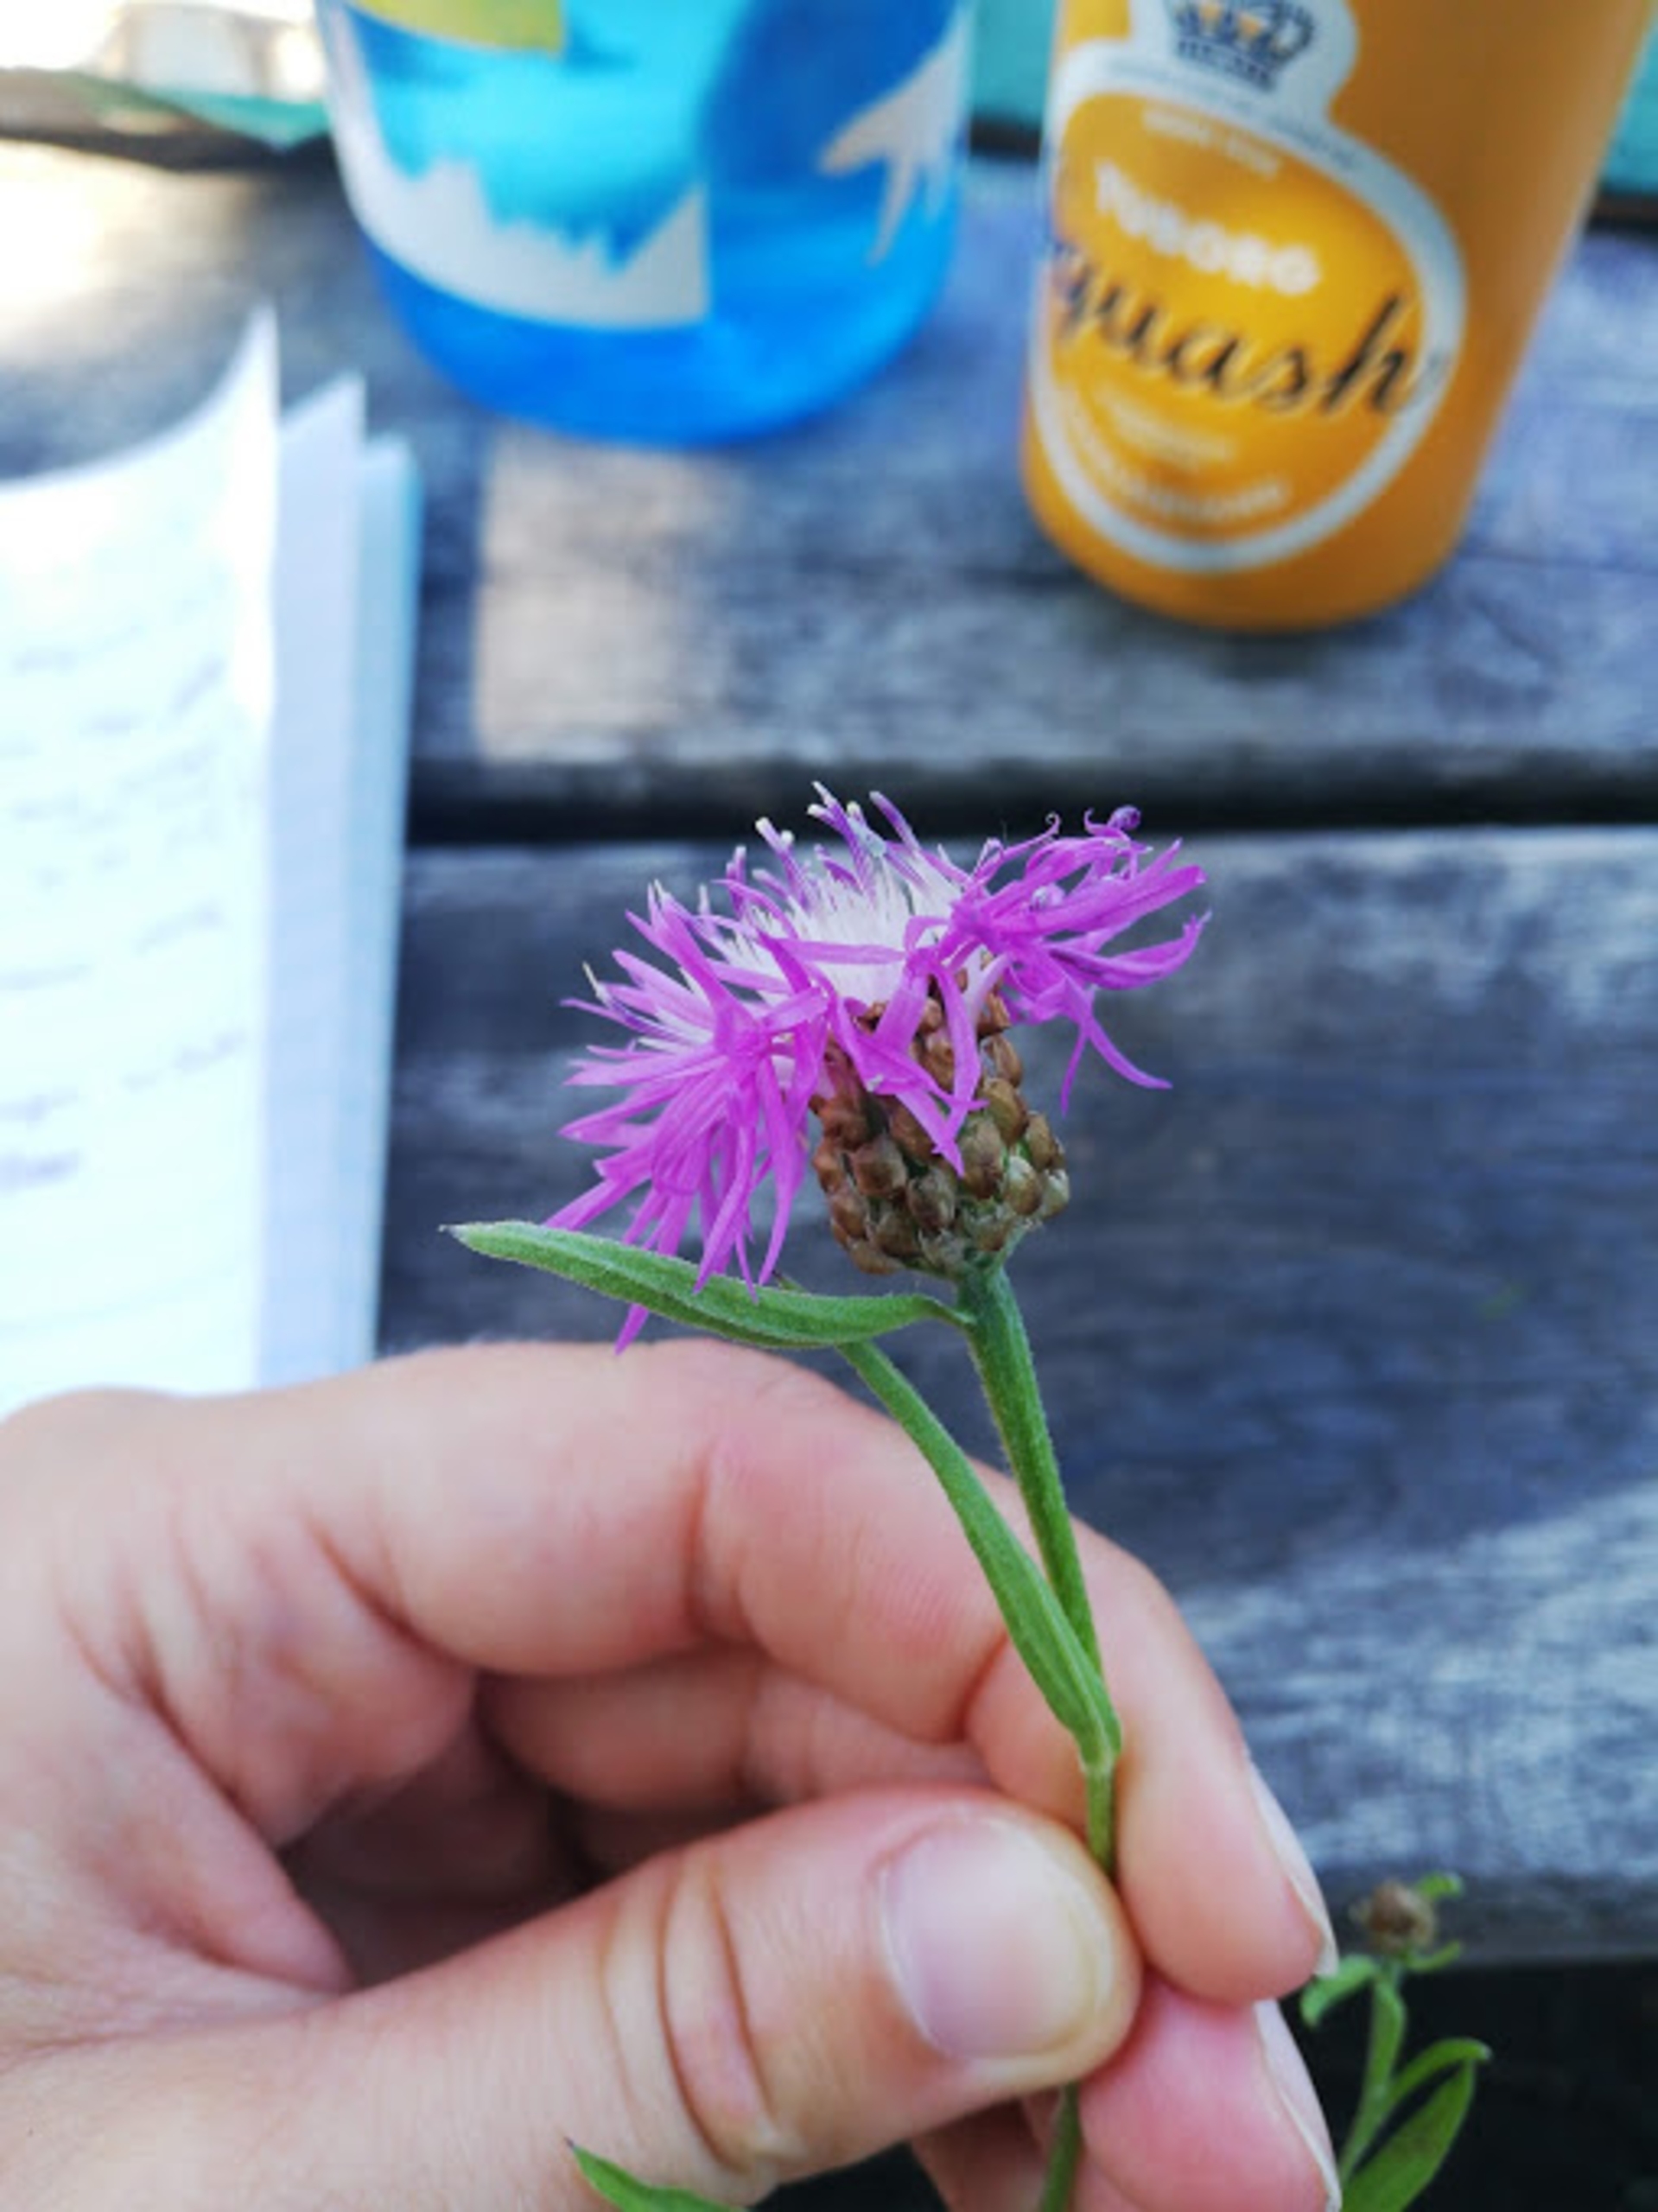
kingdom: Plantae
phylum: Tracheophyta
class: Magnoliopsida
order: Asterales
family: Asteraceae
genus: Centaurea
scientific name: Centaurea jacea
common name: Almindelig knopurt
